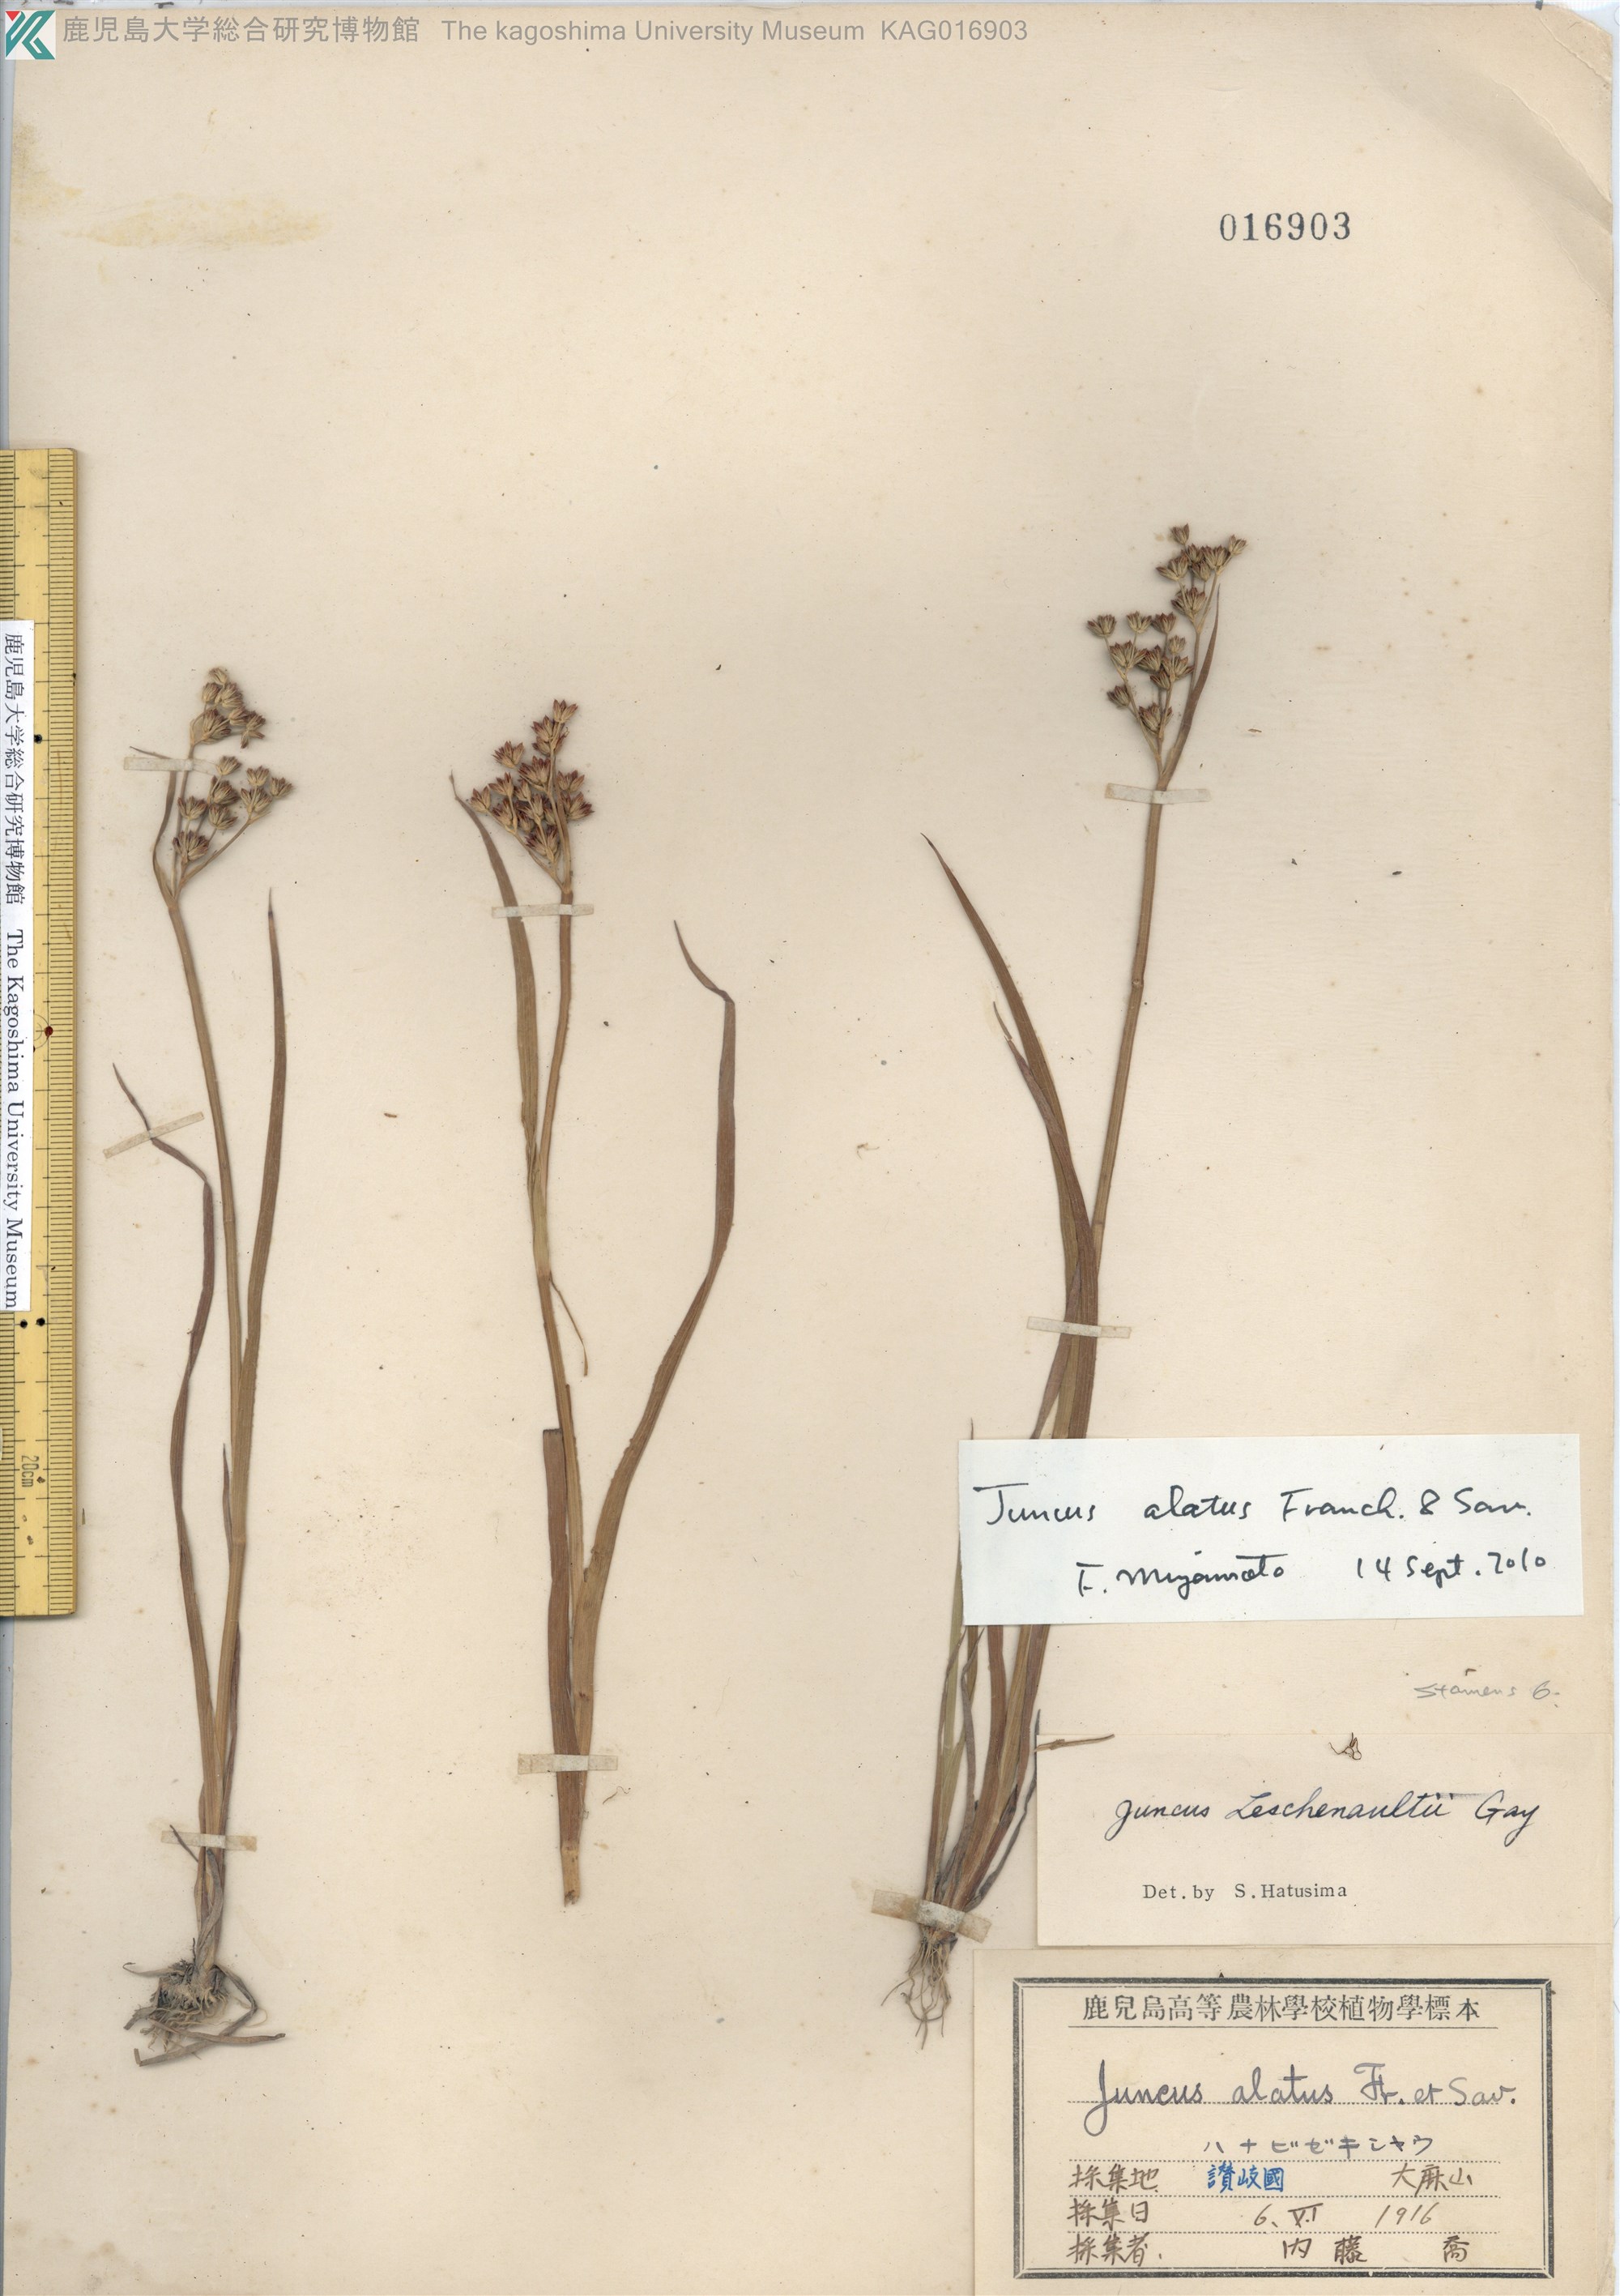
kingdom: Plantae
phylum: Tracheophyta
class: Liliopsida
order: Poales
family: Juncaceae
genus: Juncus
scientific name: Juncus alatus
